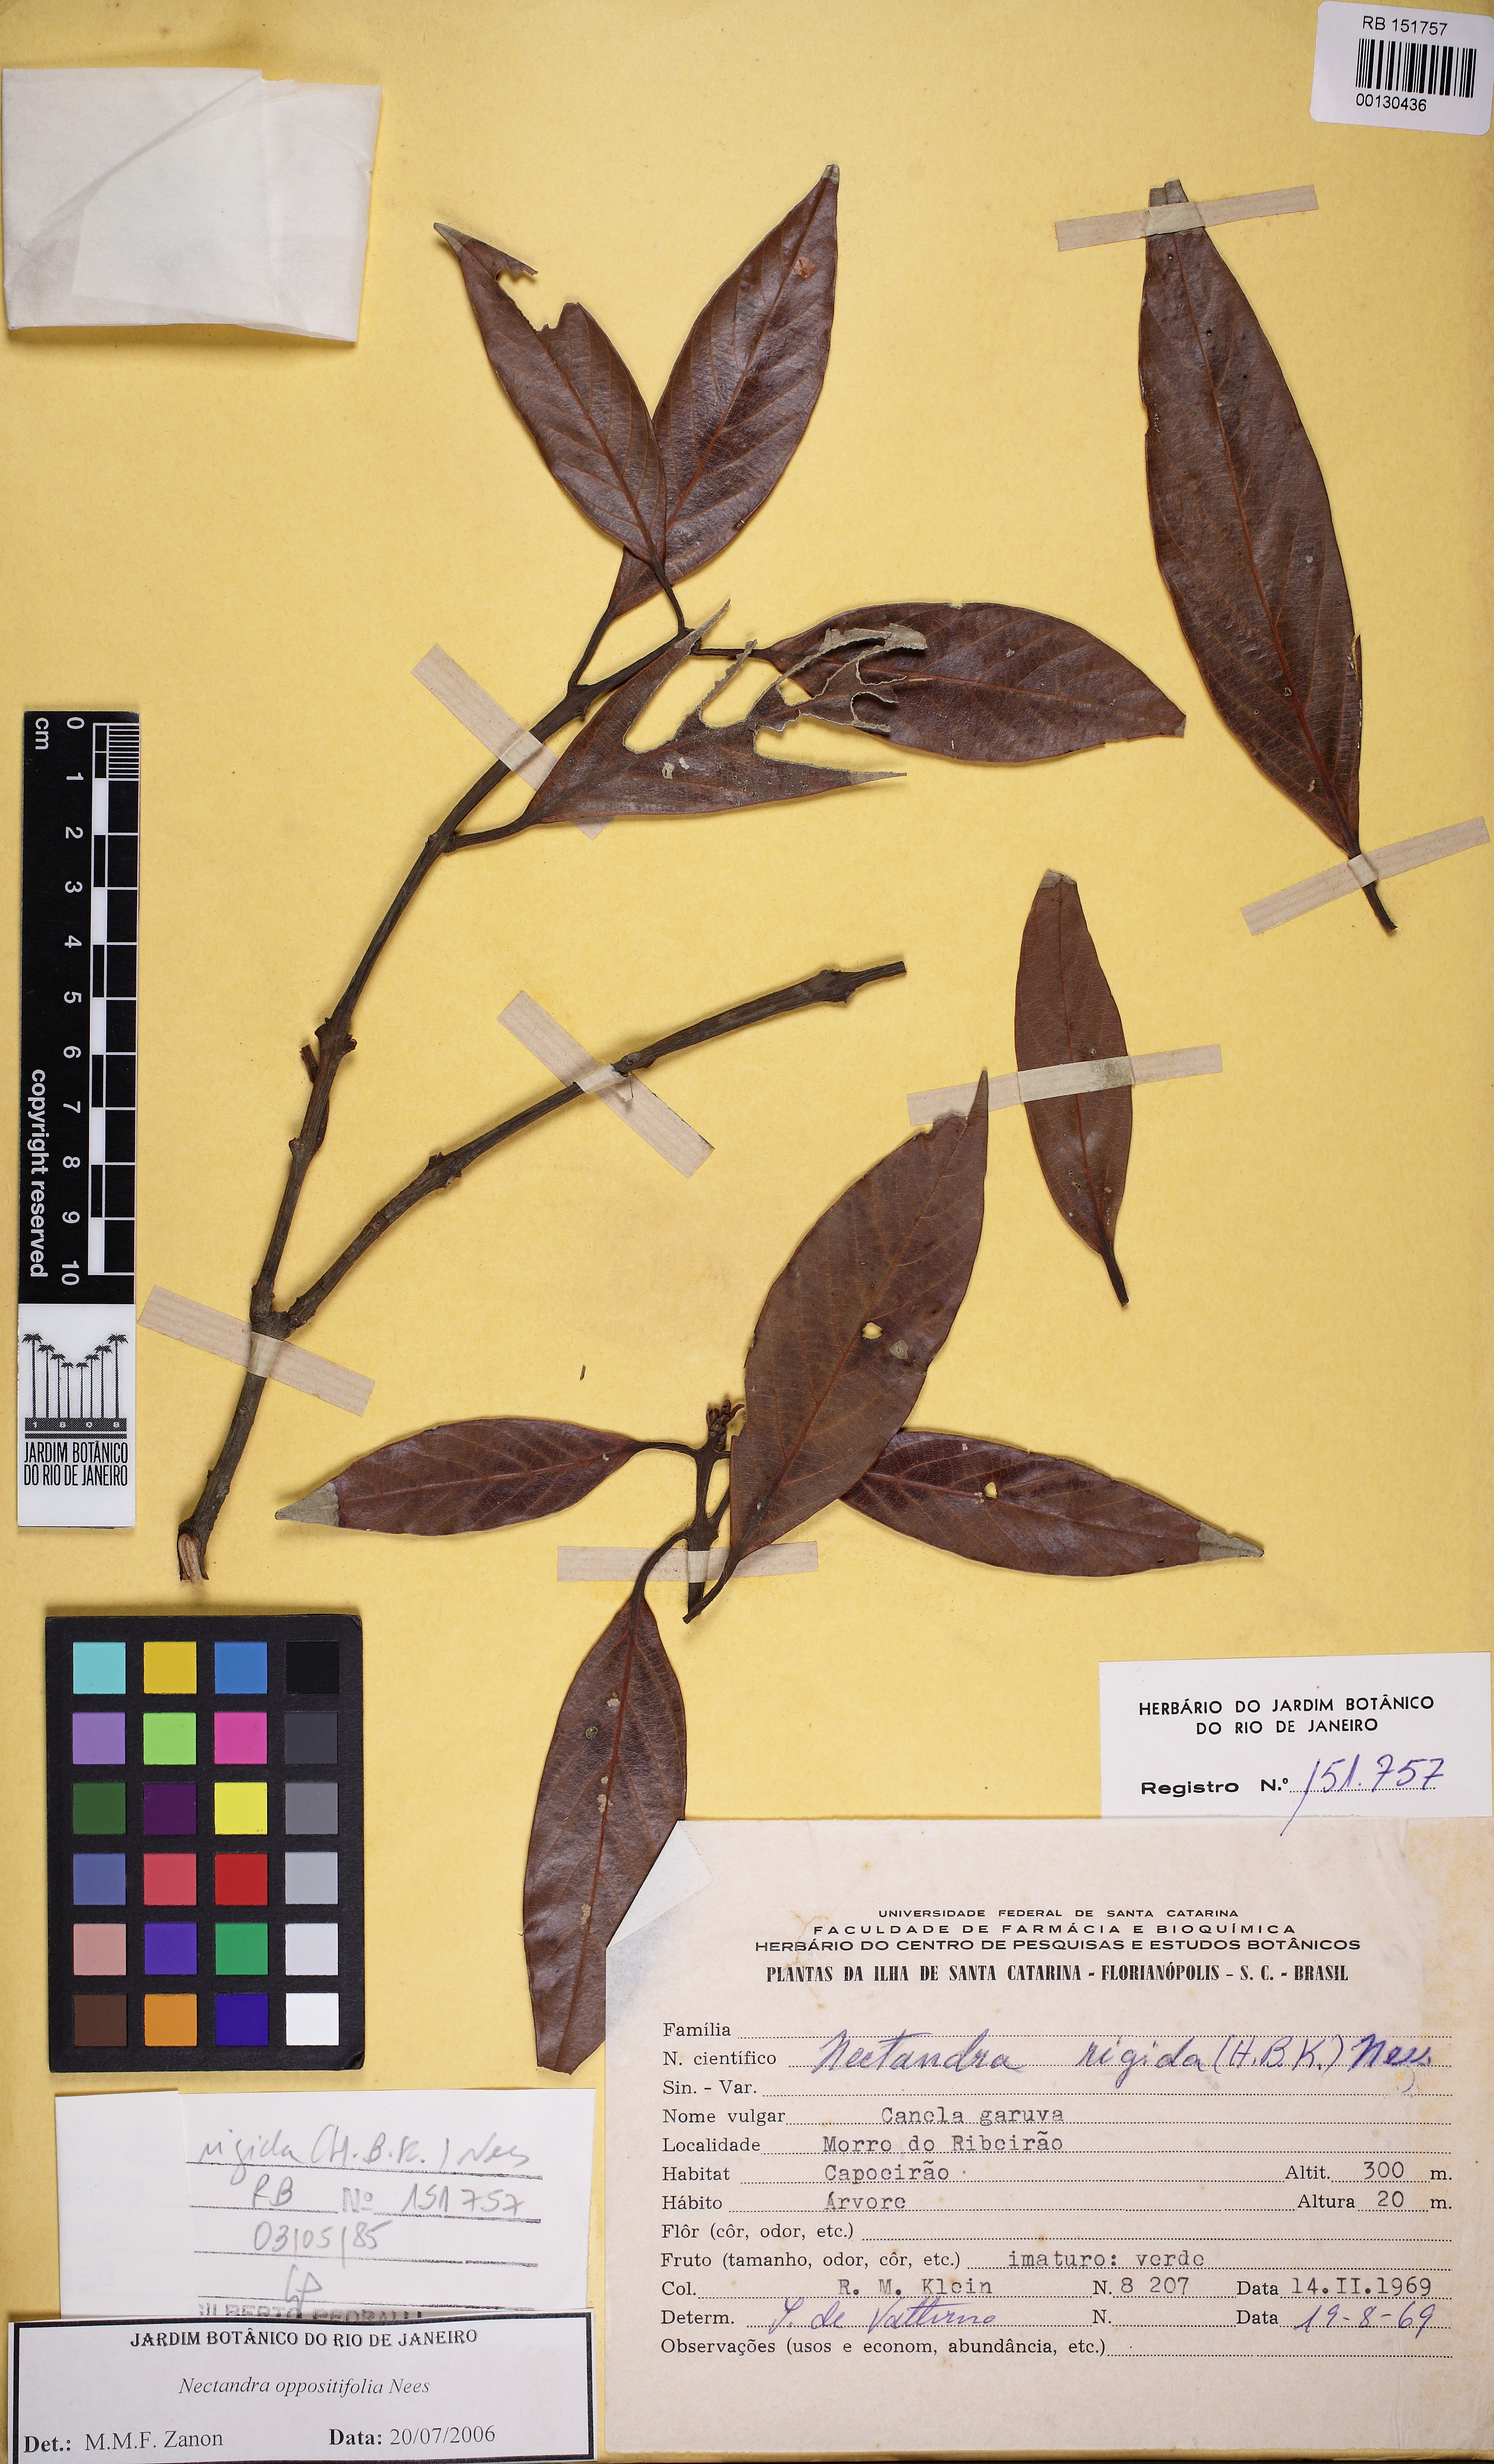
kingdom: Plantae
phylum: Tracheophyta
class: Magnoliopsida
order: Laurales
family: Lauraceae
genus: Nectandra
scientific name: Nectandra oppositifolia
